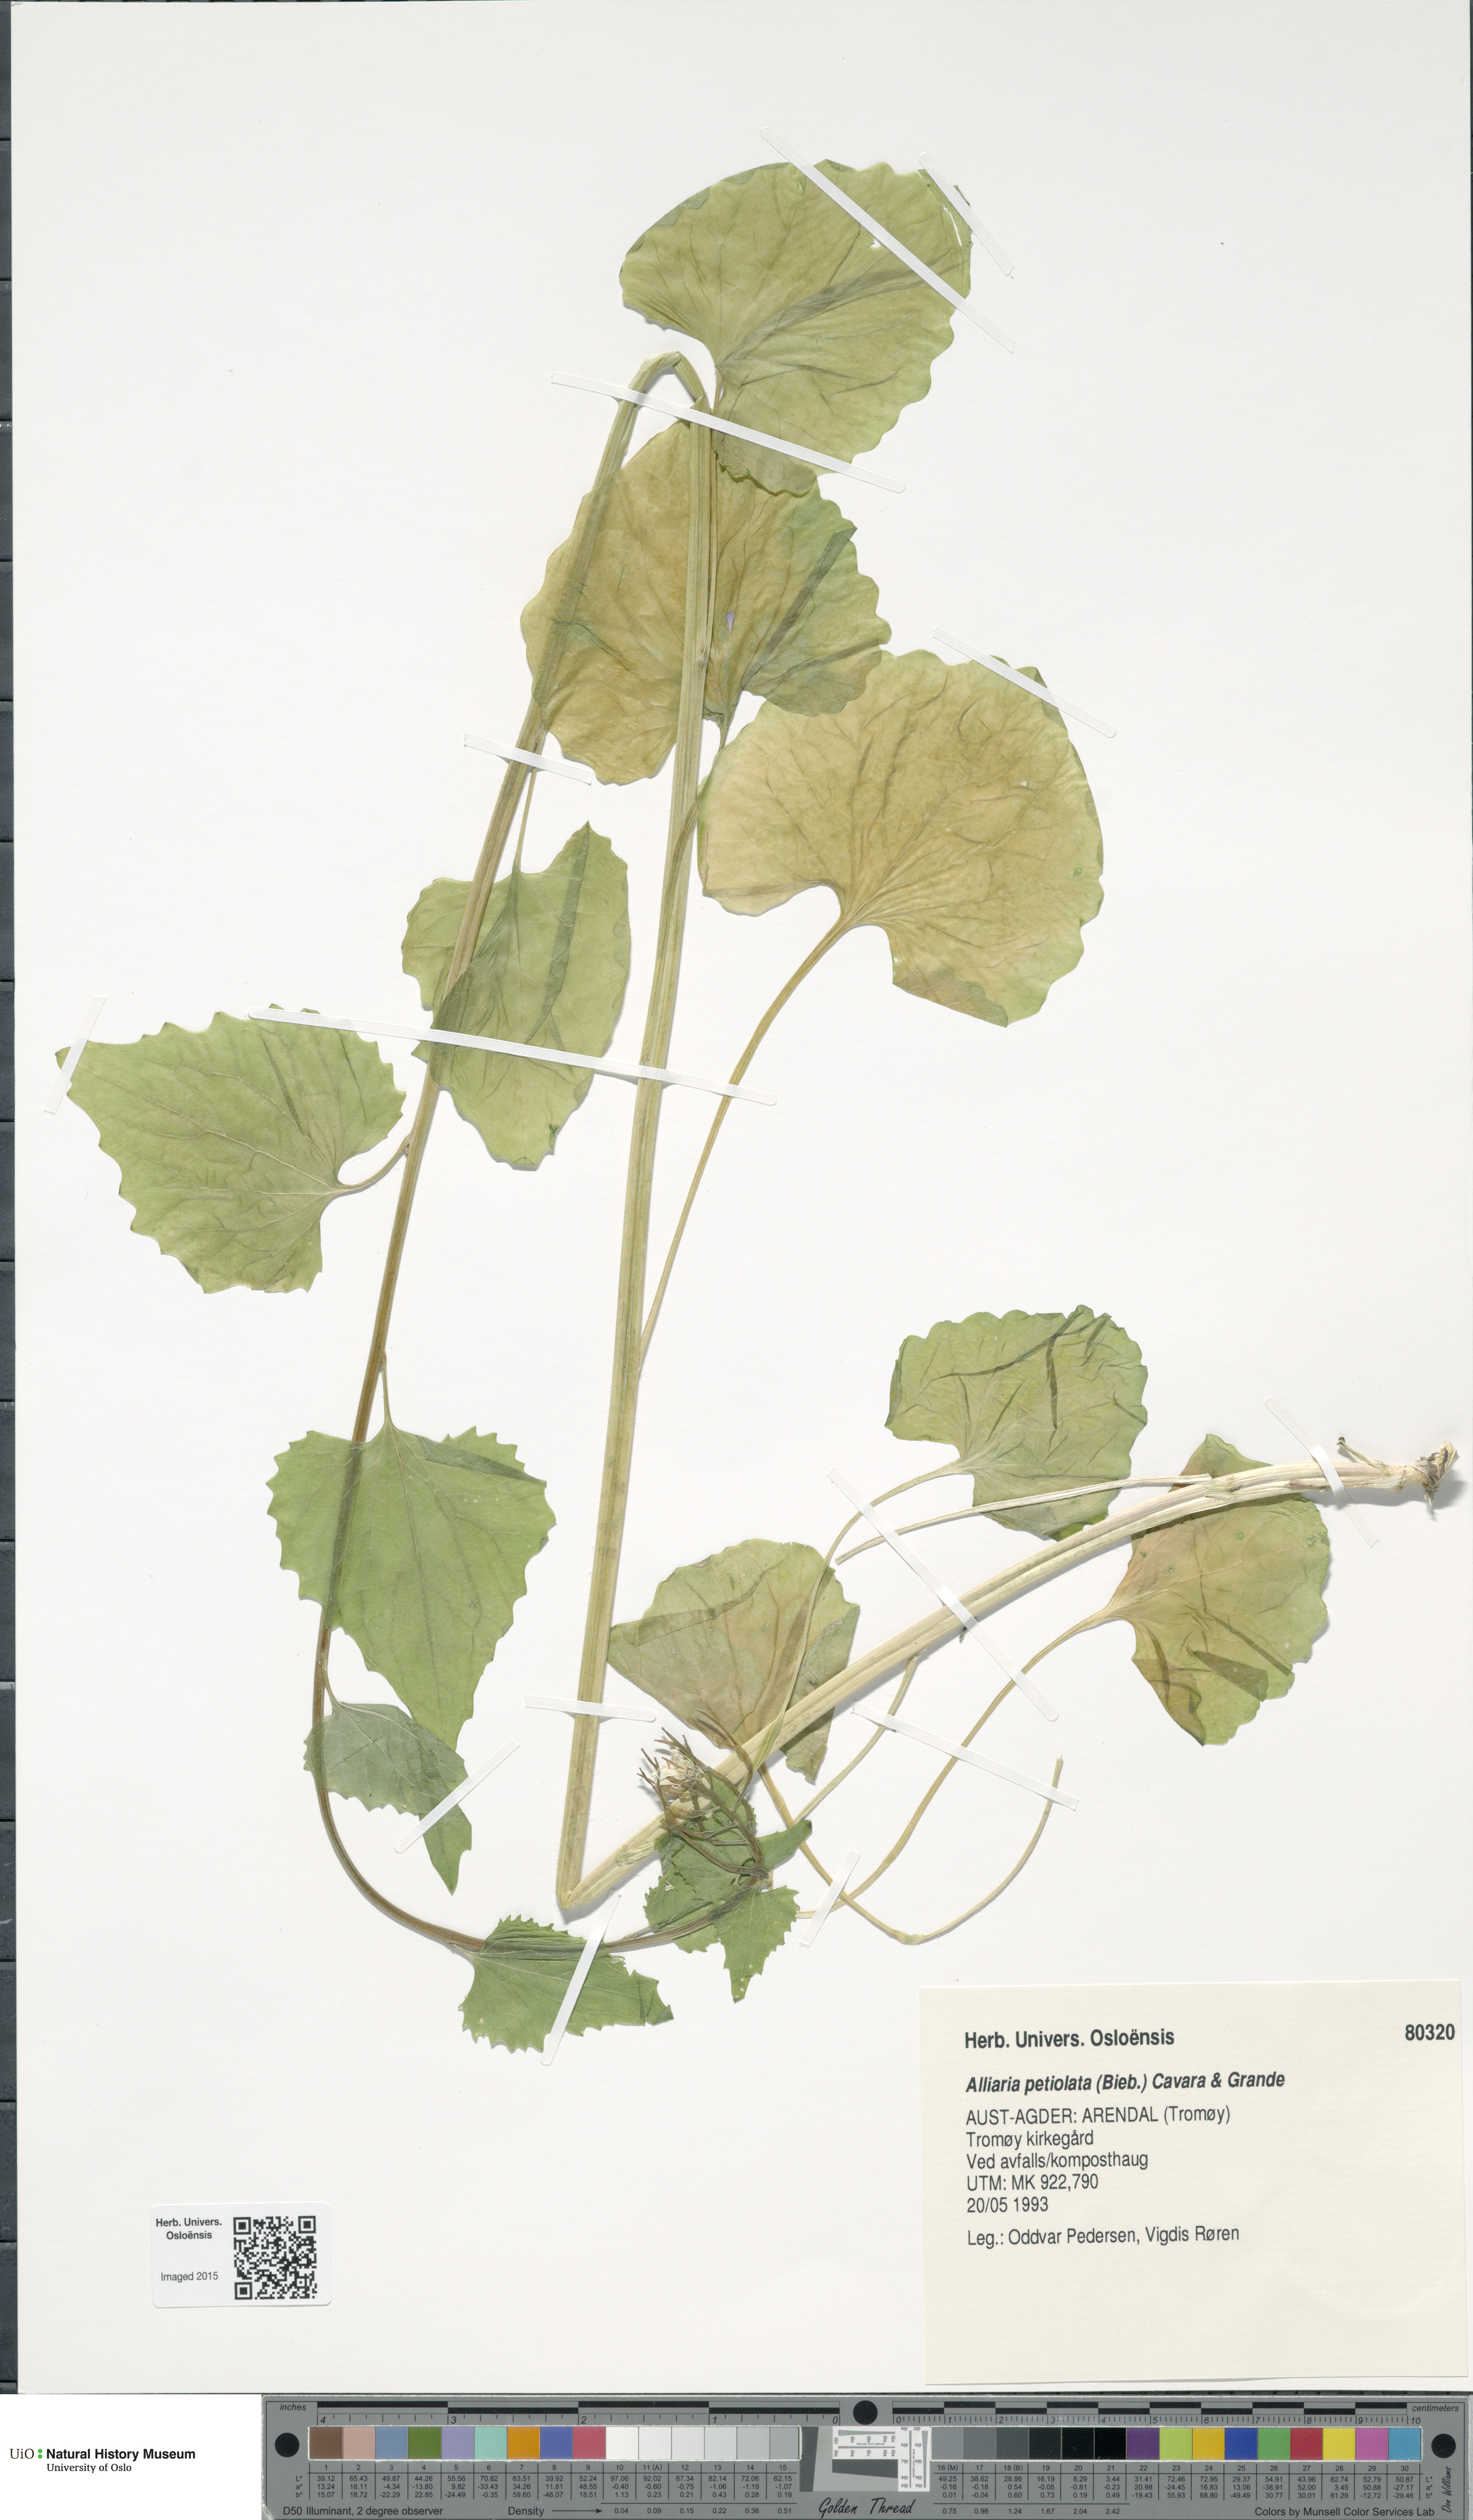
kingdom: Plantae
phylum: Tracheophyta
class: Magnoliopsida
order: Brassicales
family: Brassicaceae
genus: Alliaria
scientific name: Alliaria petiolata
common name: Garlic mustard
